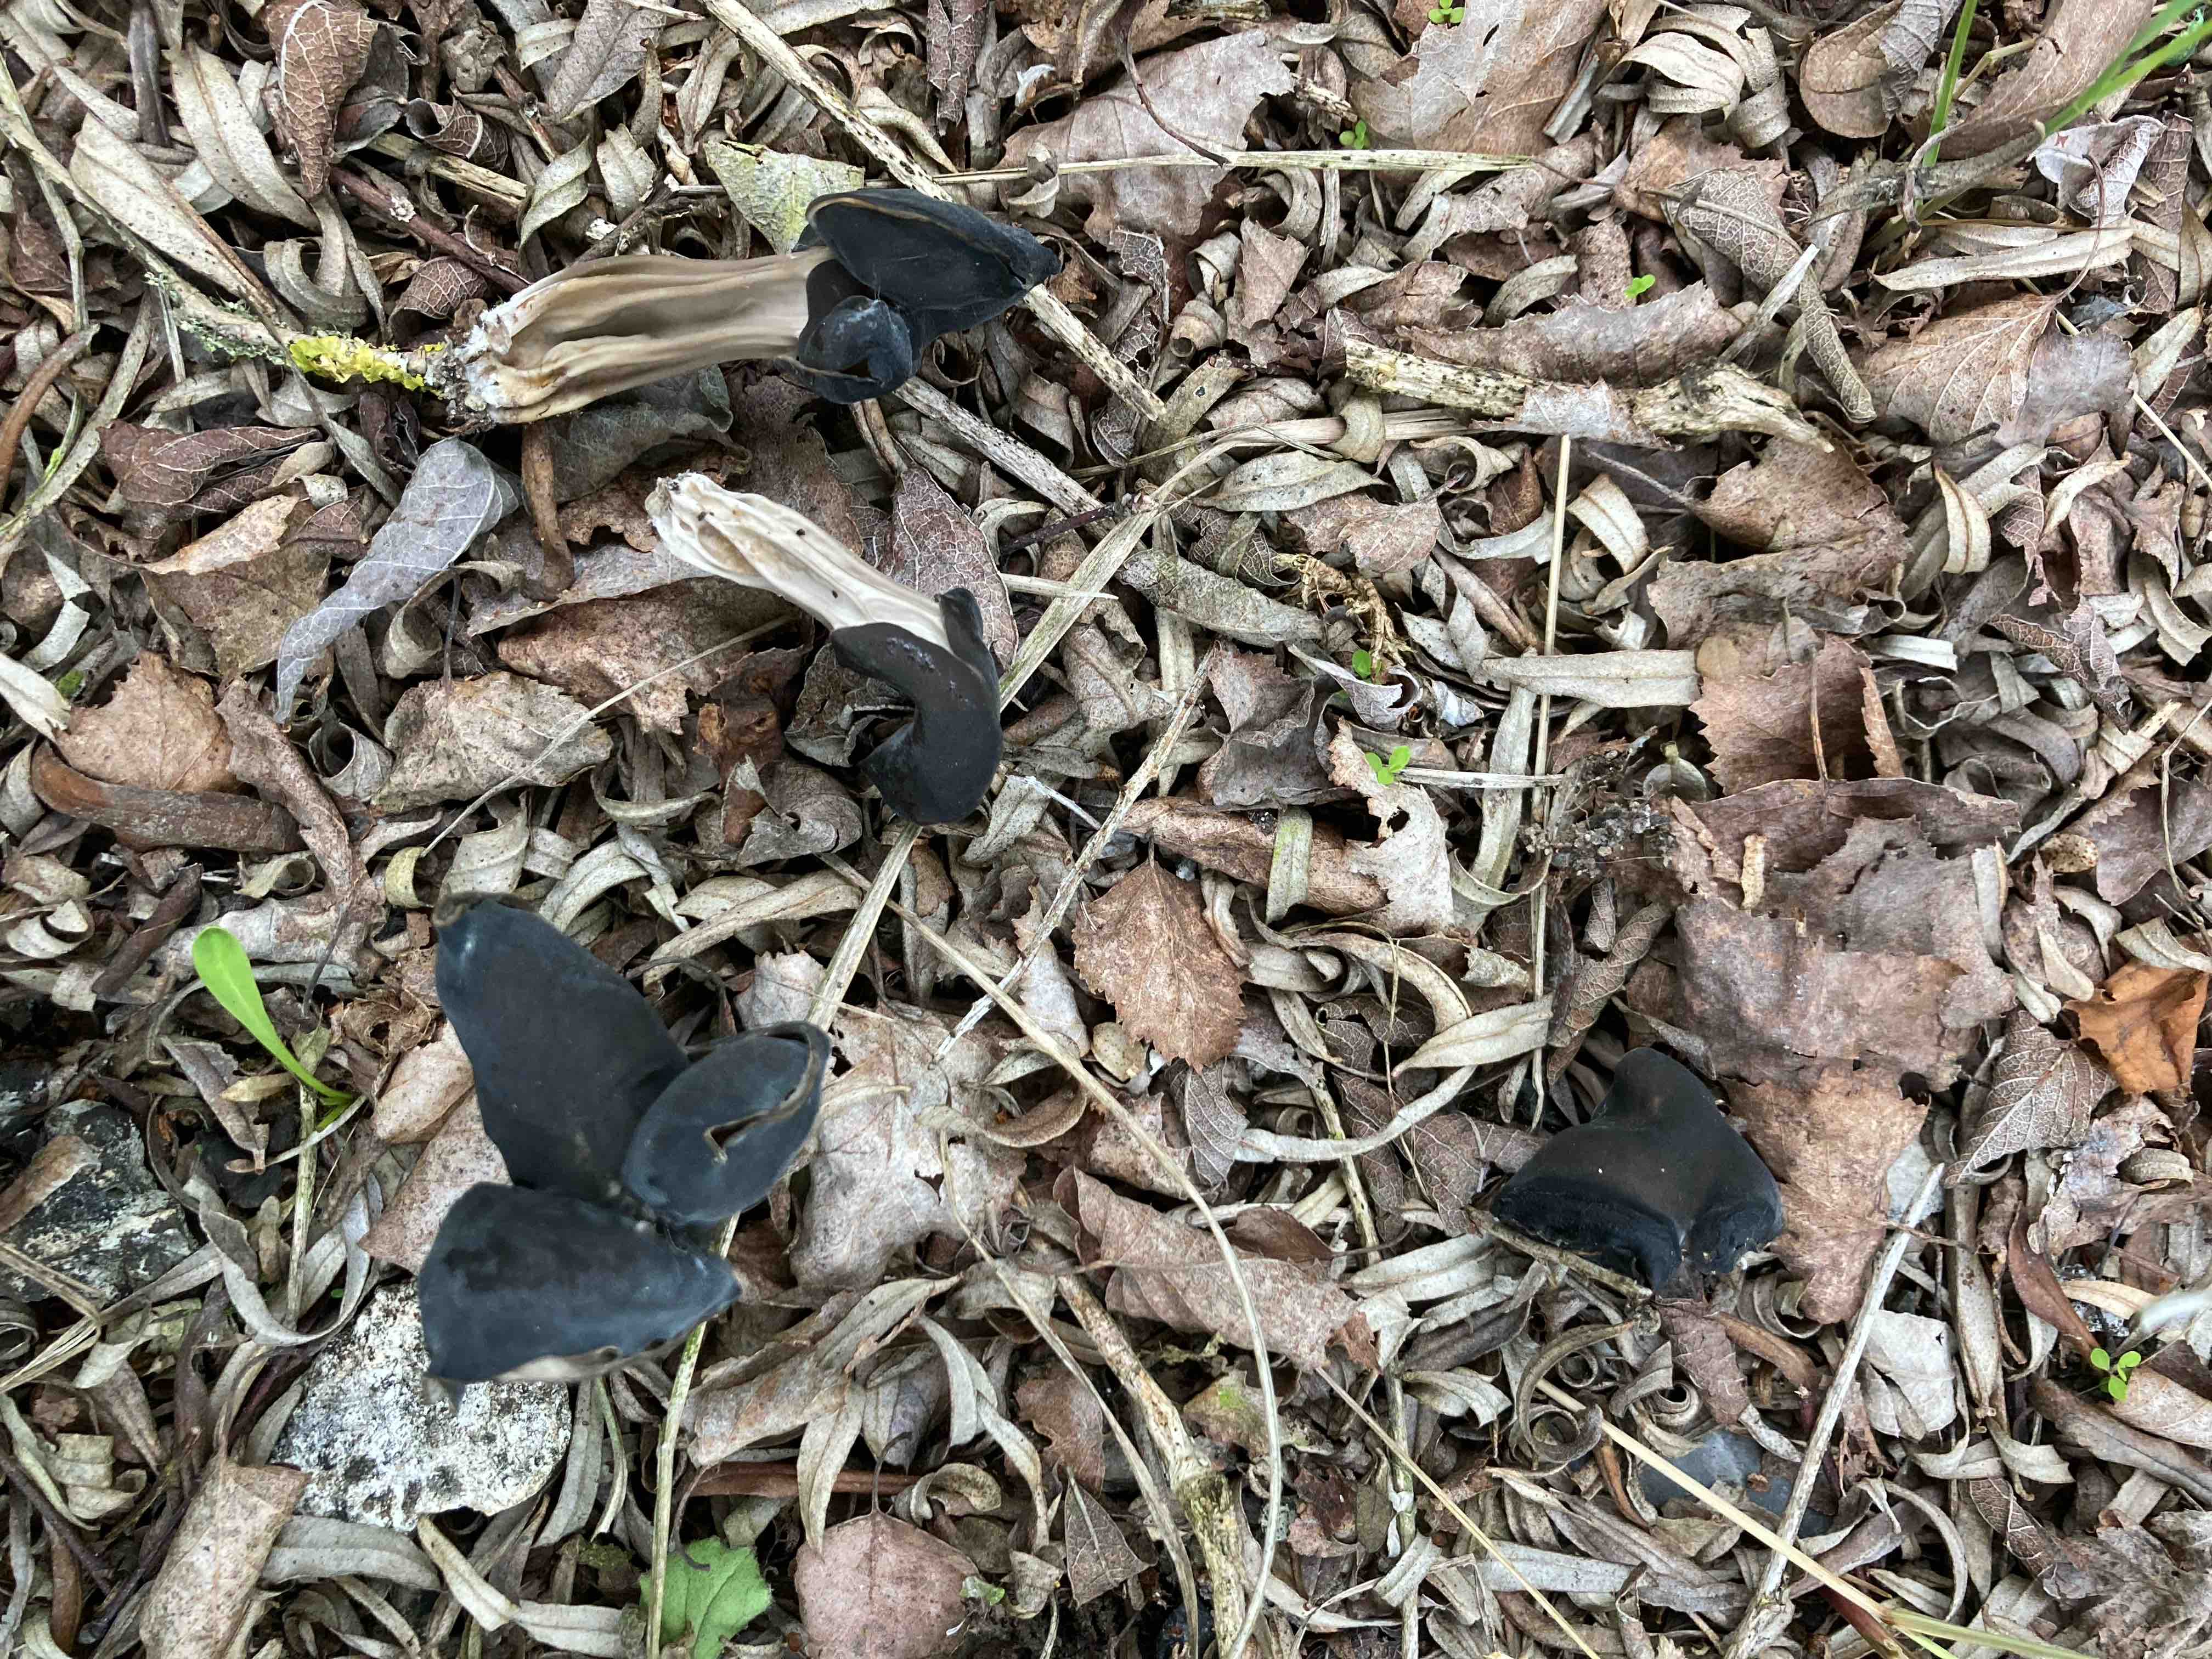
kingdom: Fungi
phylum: Ascomycota
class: Pezizomycetes
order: Pezizales
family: Helvellaceae
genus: Helvella
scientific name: Helvella
